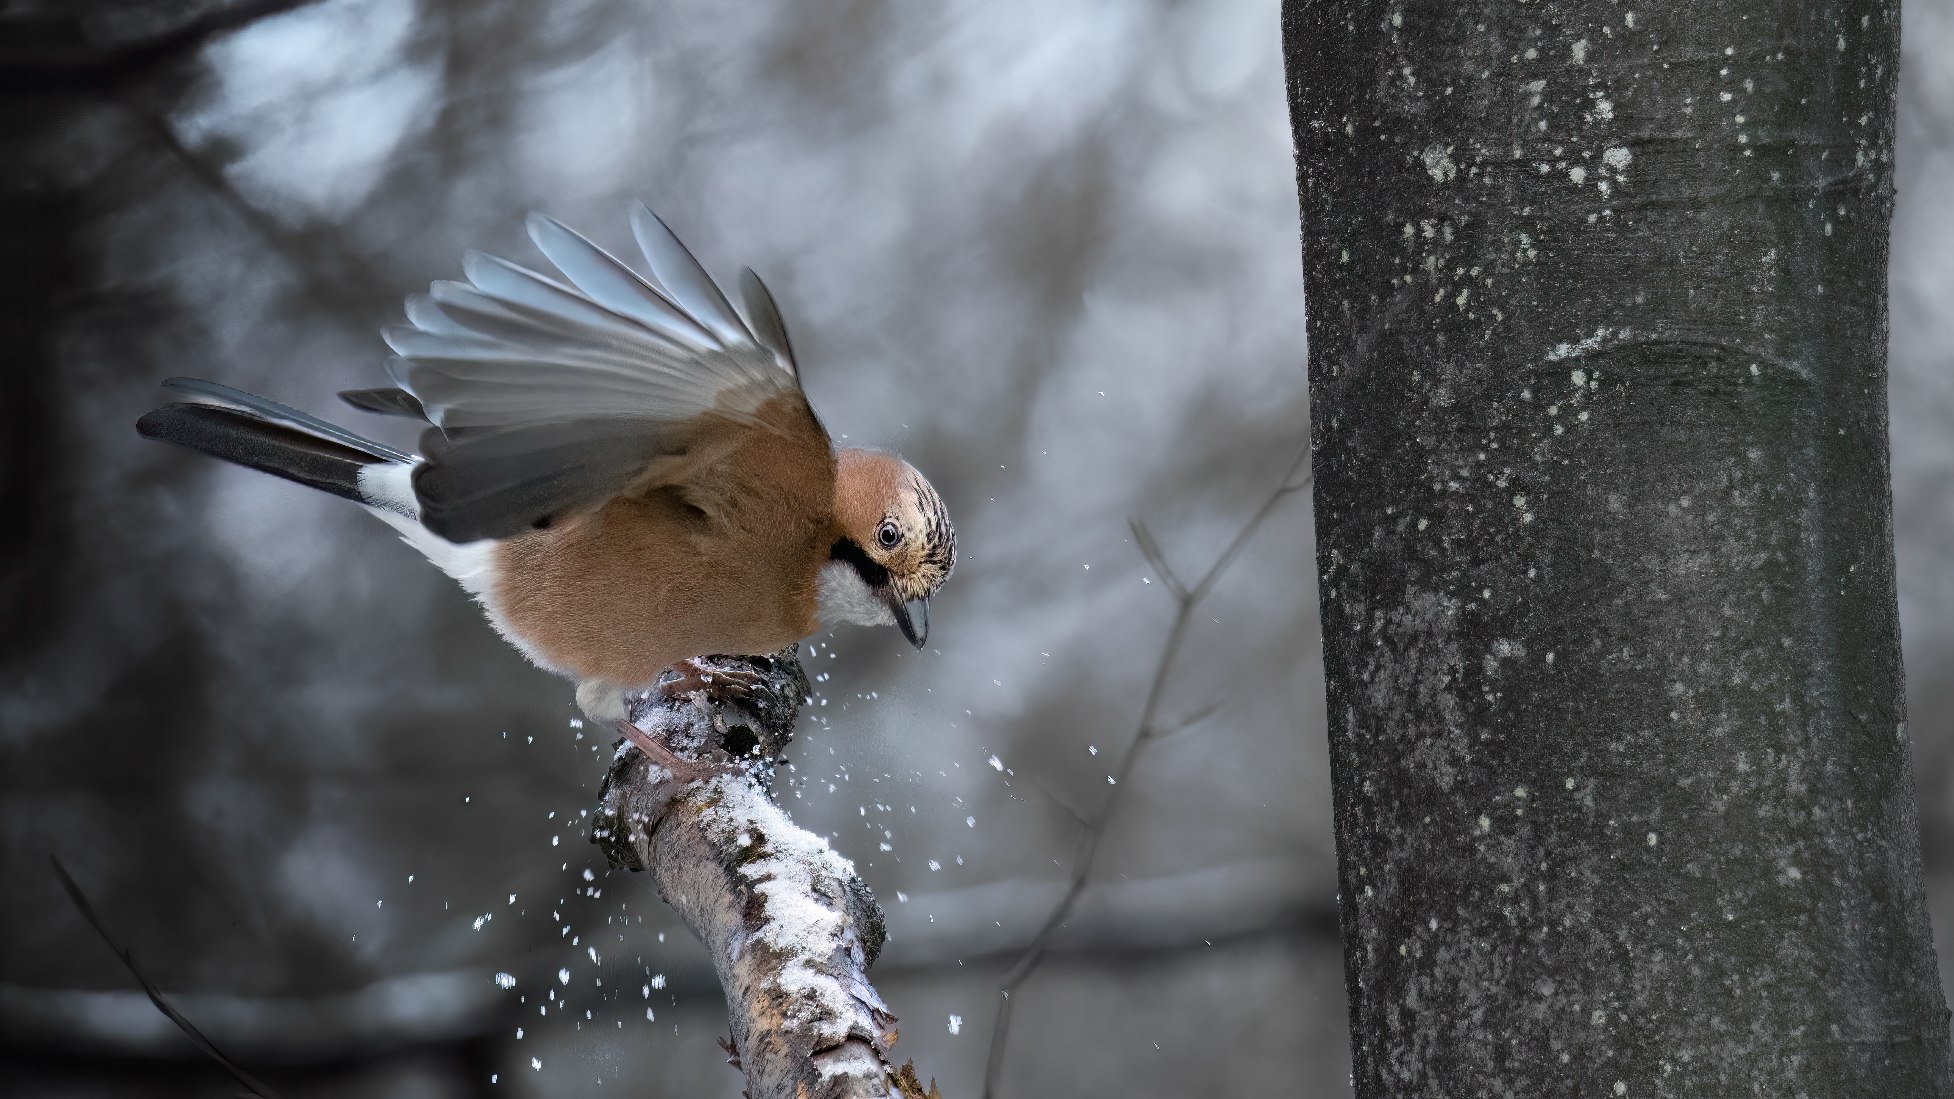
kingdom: Animalia
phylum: Chordata
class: Aves
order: Passeriformes
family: Corvidae
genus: Garrulus
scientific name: Garrulus glandarius
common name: Skovskade
